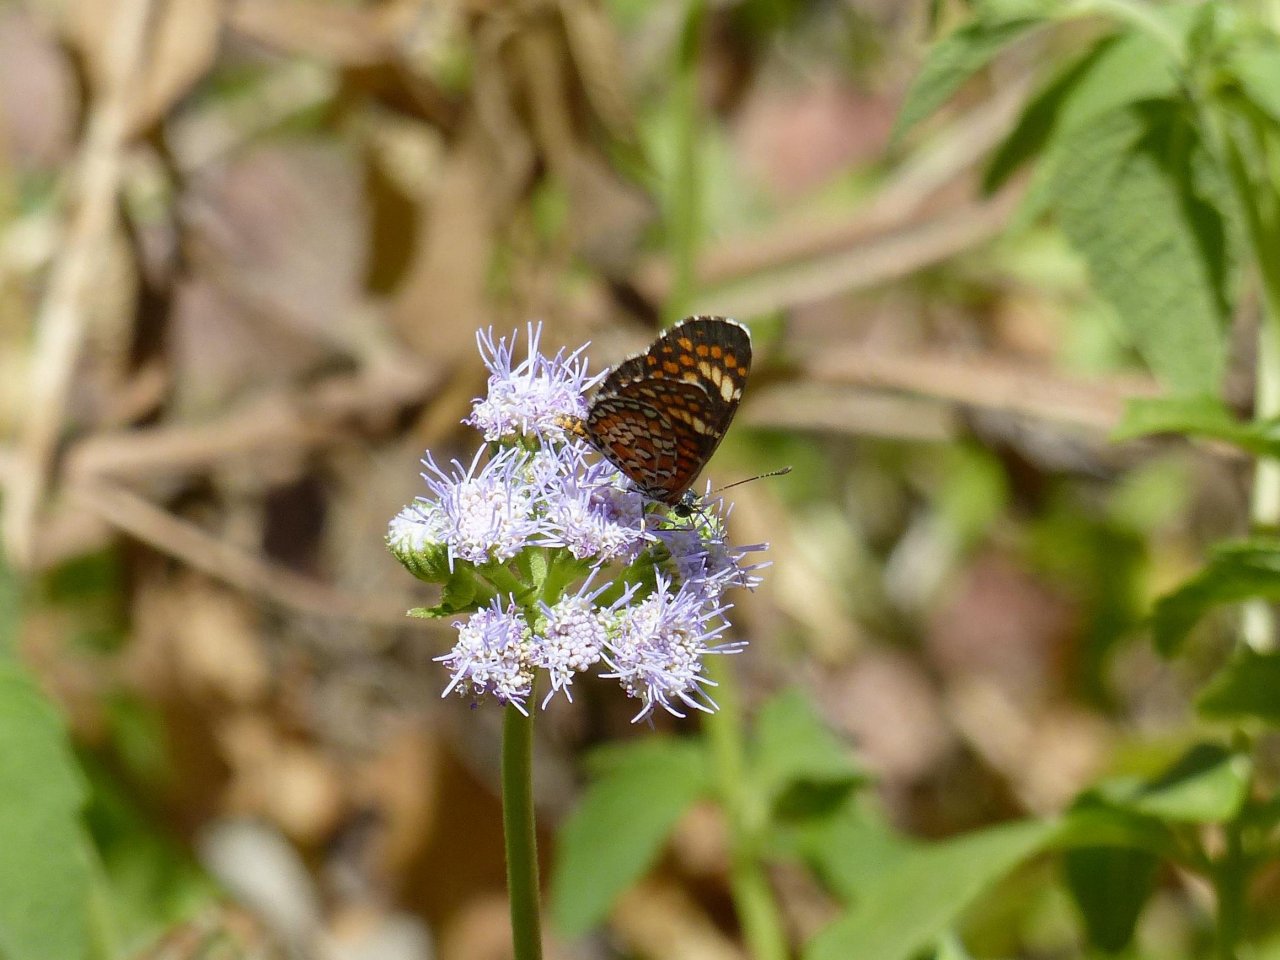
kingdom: Animalia
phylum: Arthropoda
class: Insecta
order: Lepidoptera
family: Nymphalidae
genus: Dymasia
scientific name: Dymasia dymas
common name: Tiny Checkerspot
